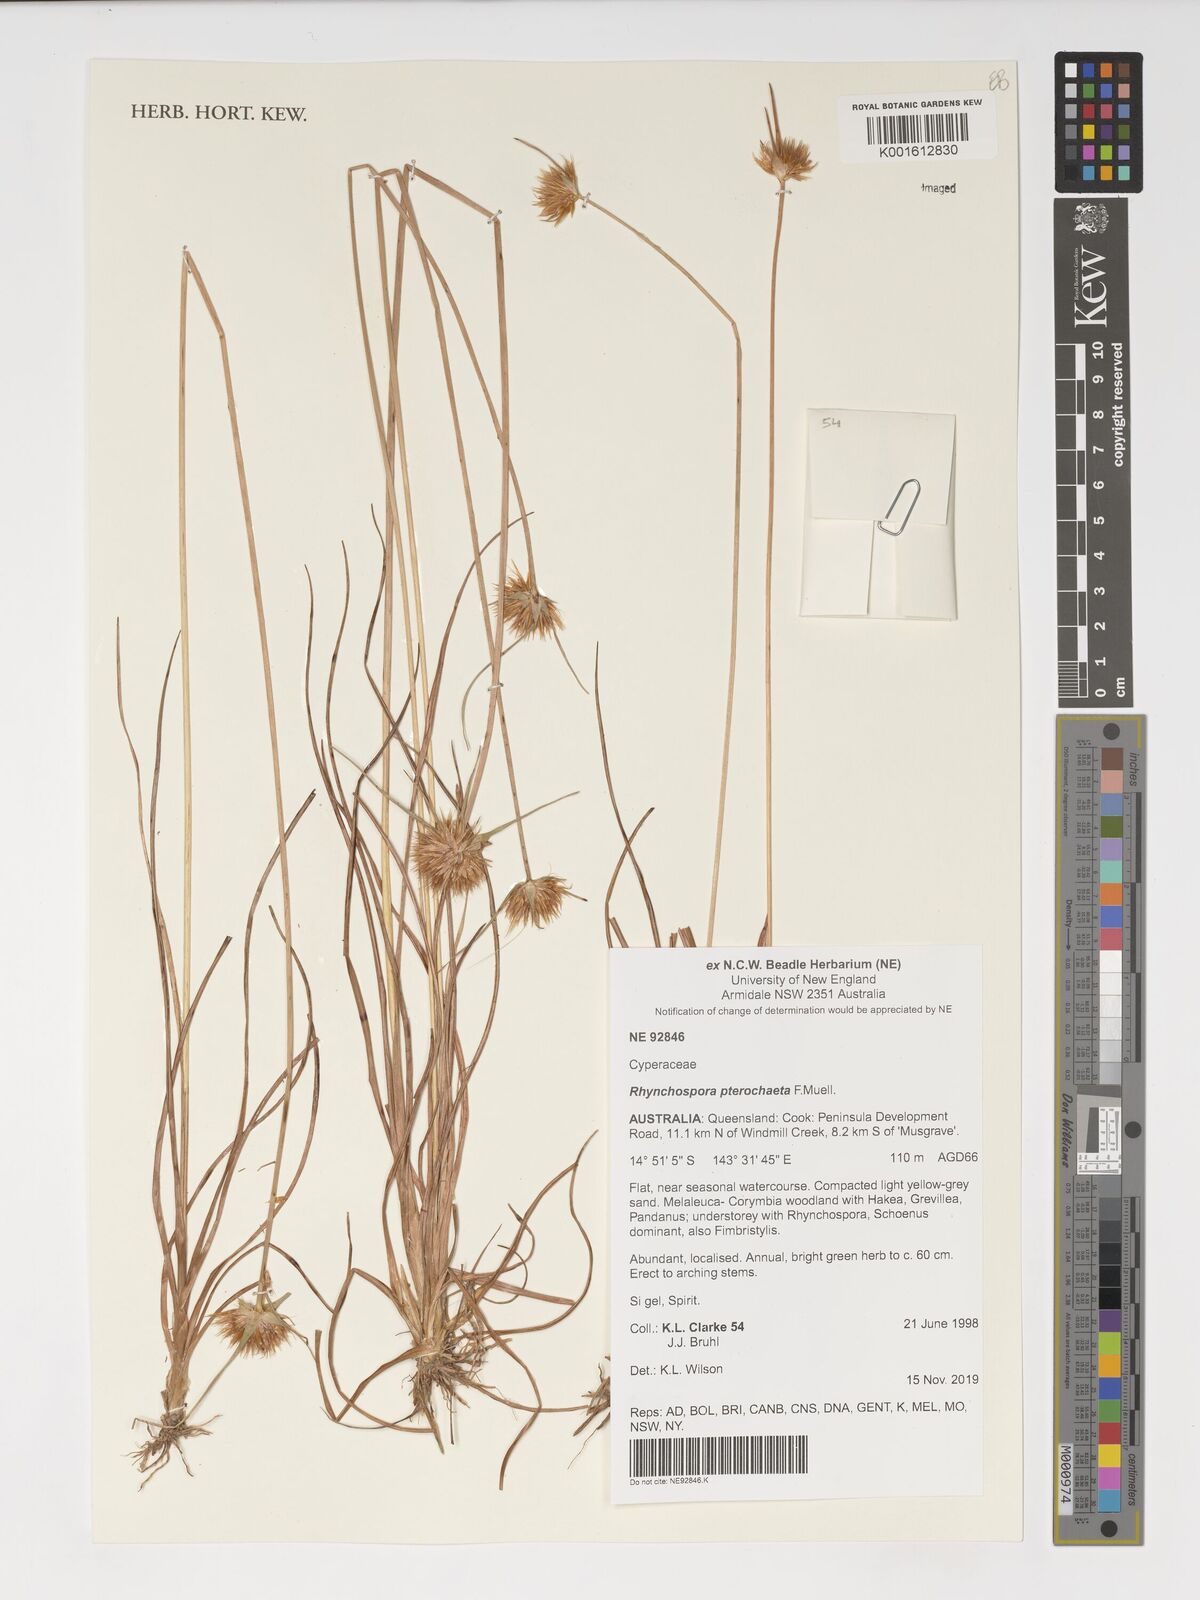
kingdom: Plantae
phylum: Tracheophyta
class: Liliopsida
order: Poales
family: Cyperaceae
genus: Rhynchospora
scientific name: Rhynchospora pterochaeta
